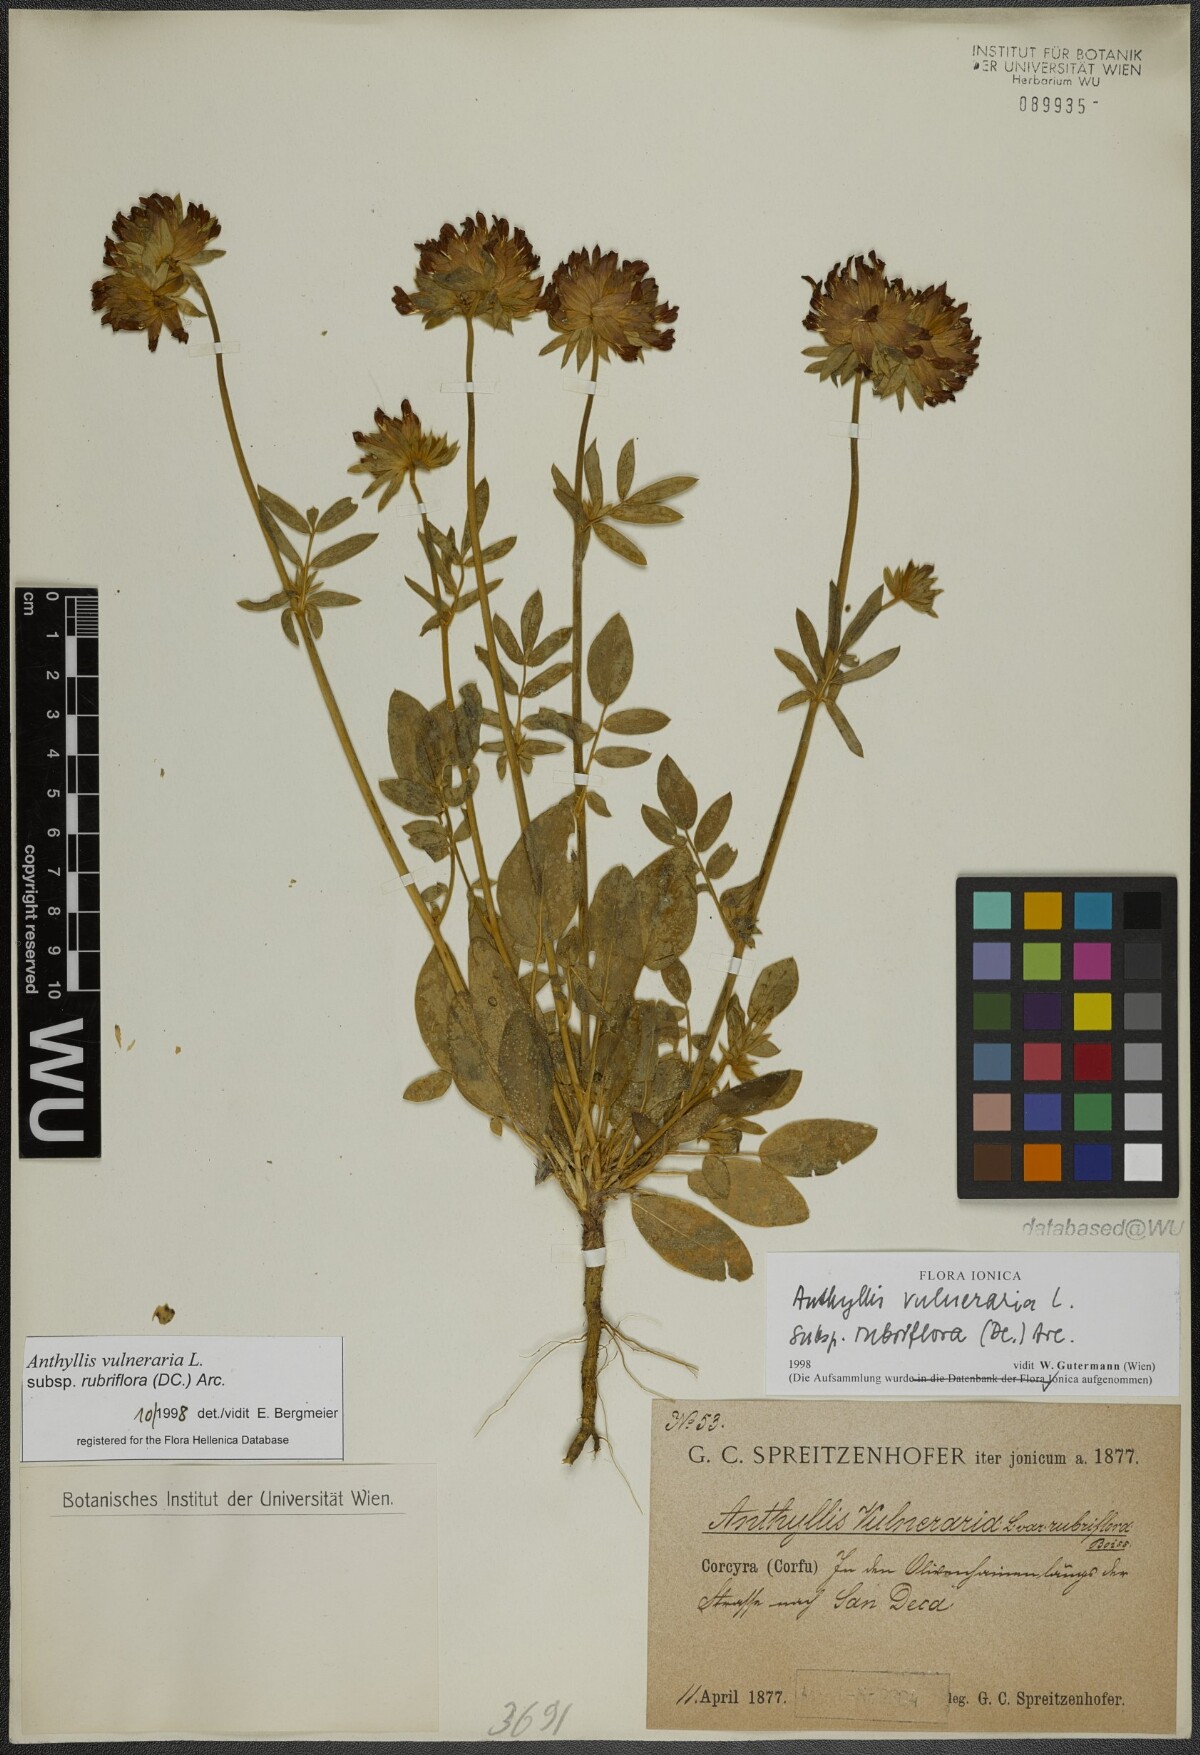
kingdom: Plantae
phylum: Tracheophyta
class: Magnoliopsida
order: Fabales
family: Fabaceae
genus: Anthyllis
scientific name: Anthyllis vulneraria
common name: Kidney vetch
